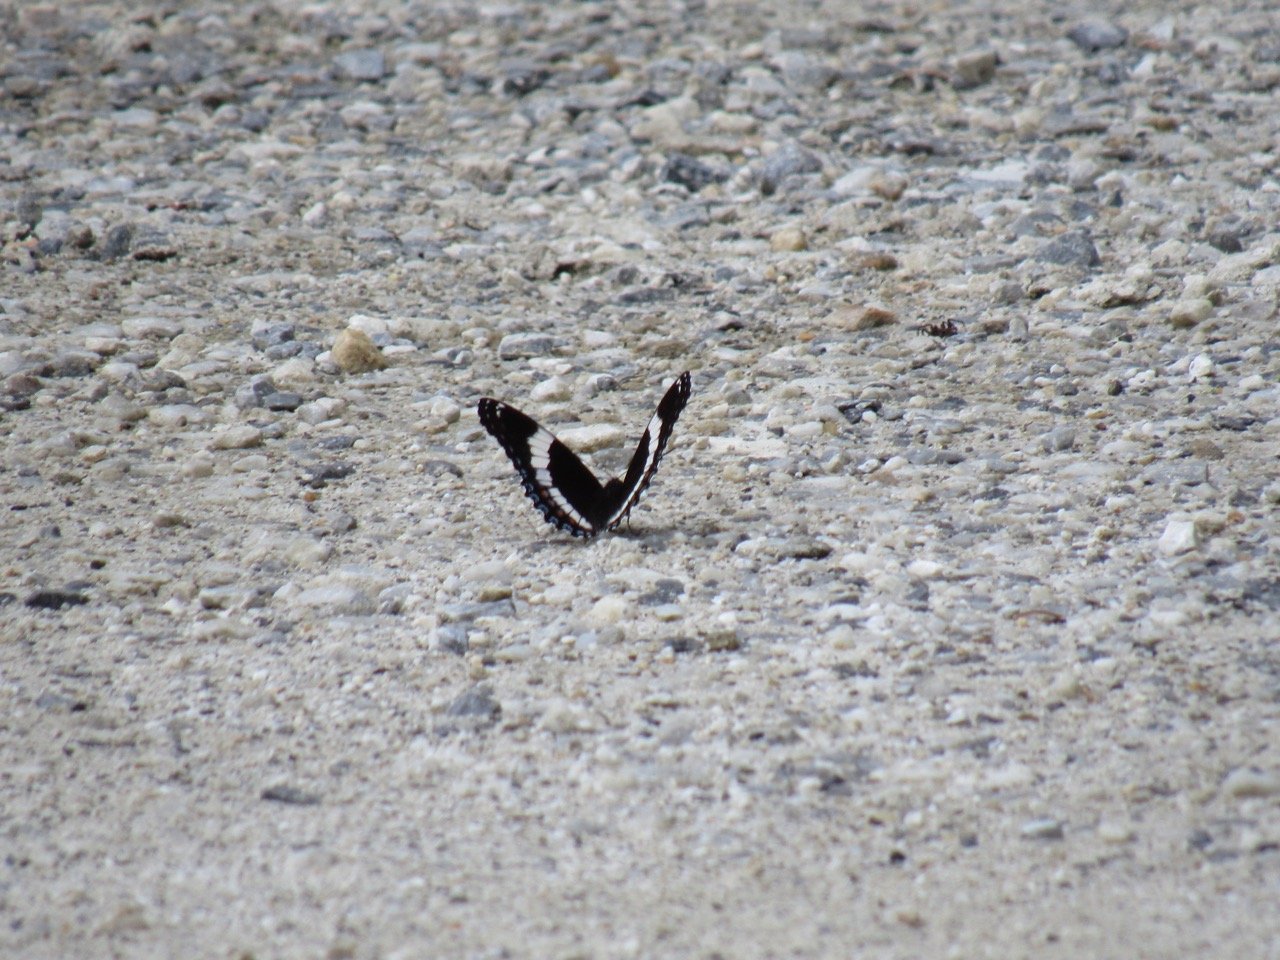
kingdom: Animalia
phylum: Arthropoda
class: Insecta
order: Lepidoptera
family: Nymphalidae
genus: Limenitis
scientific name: Limenitis arthemis
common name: Red-spotted Admiral
